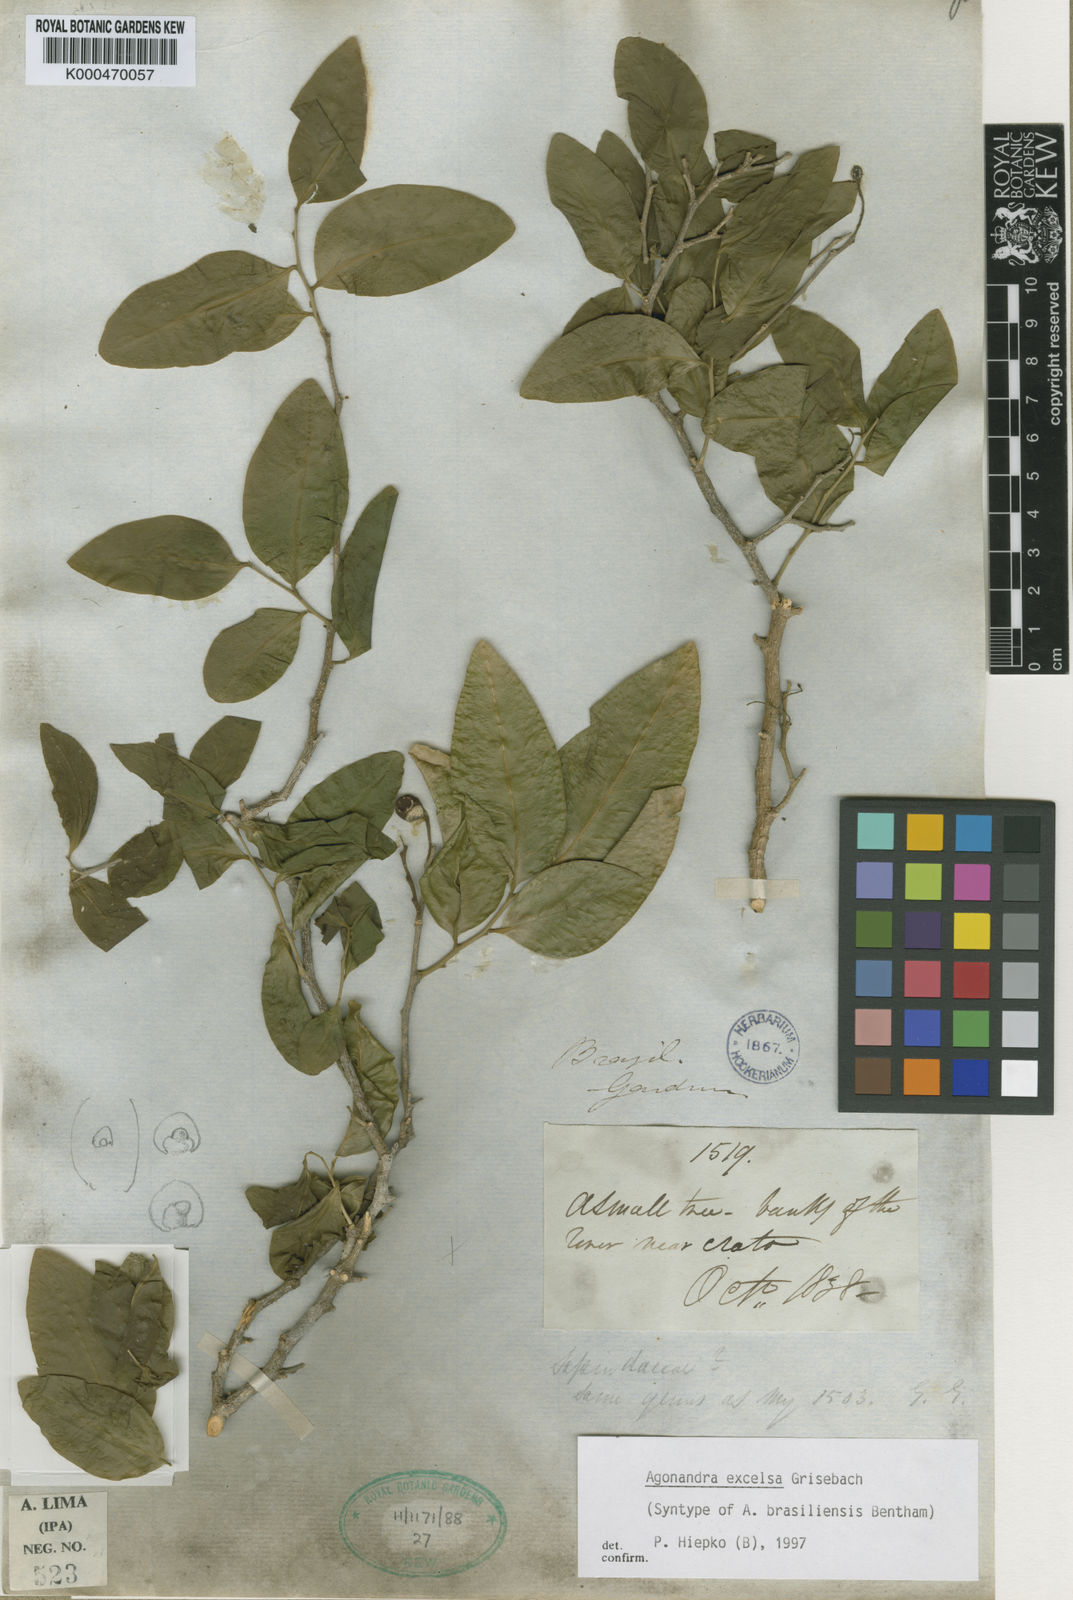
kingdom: Plantae
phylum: Tracheophyta
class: Magnoliopsida
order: Santalales
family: Opiliaceae
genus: Agonandra
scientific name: Agonandra excelsa
